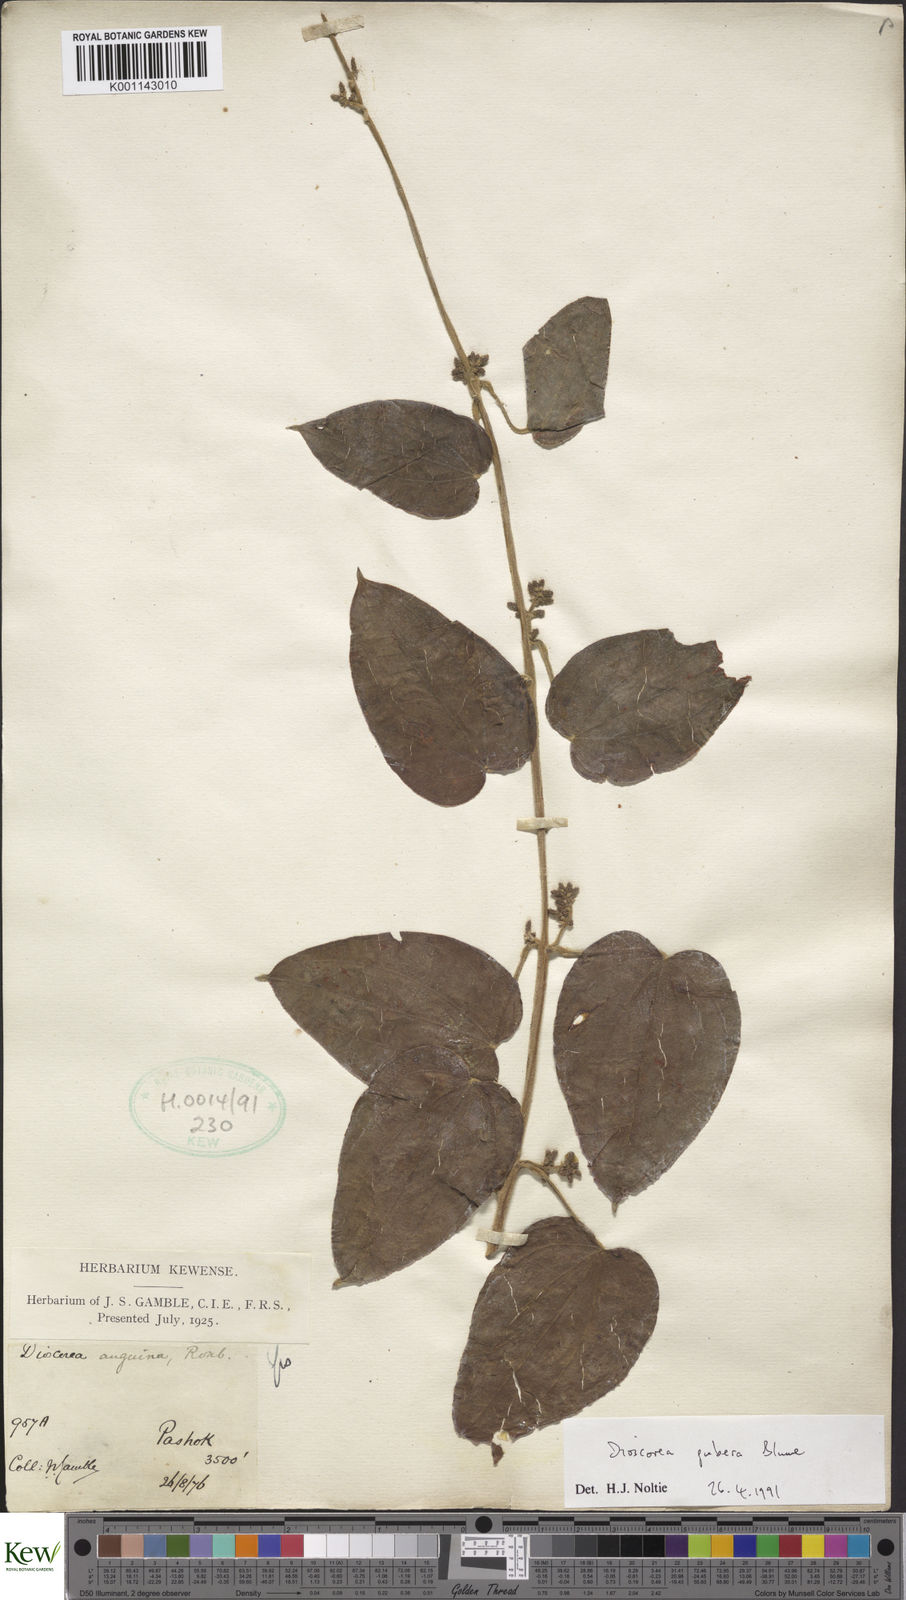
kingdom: Plantae
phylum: Tracheophyta
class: Liliopsida
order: Dioscoreales
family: Dioscoreaceae
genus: Dioscorea
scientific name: Dioscorea pubera
